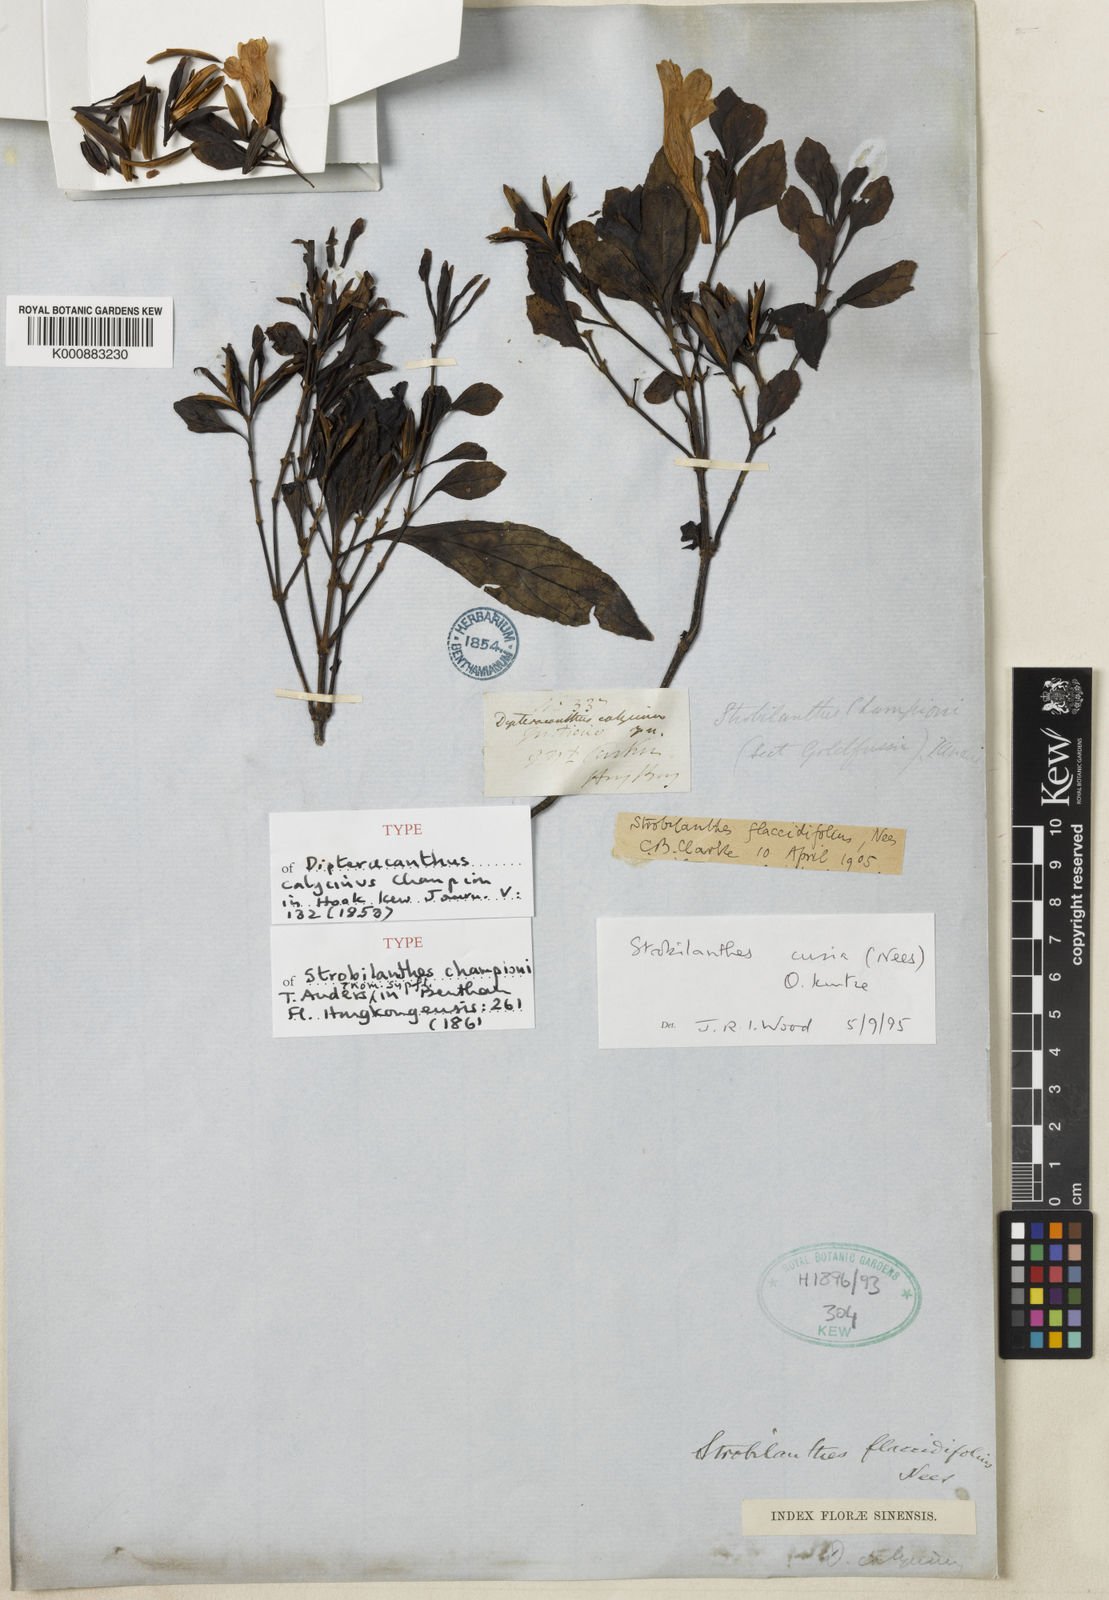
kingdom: Plantae
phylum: Tracheophyta
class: Magnoliopsida
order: Lamiales
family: Acanthaceae
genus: Strobilanthes
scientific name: Strobilanthes cusia
